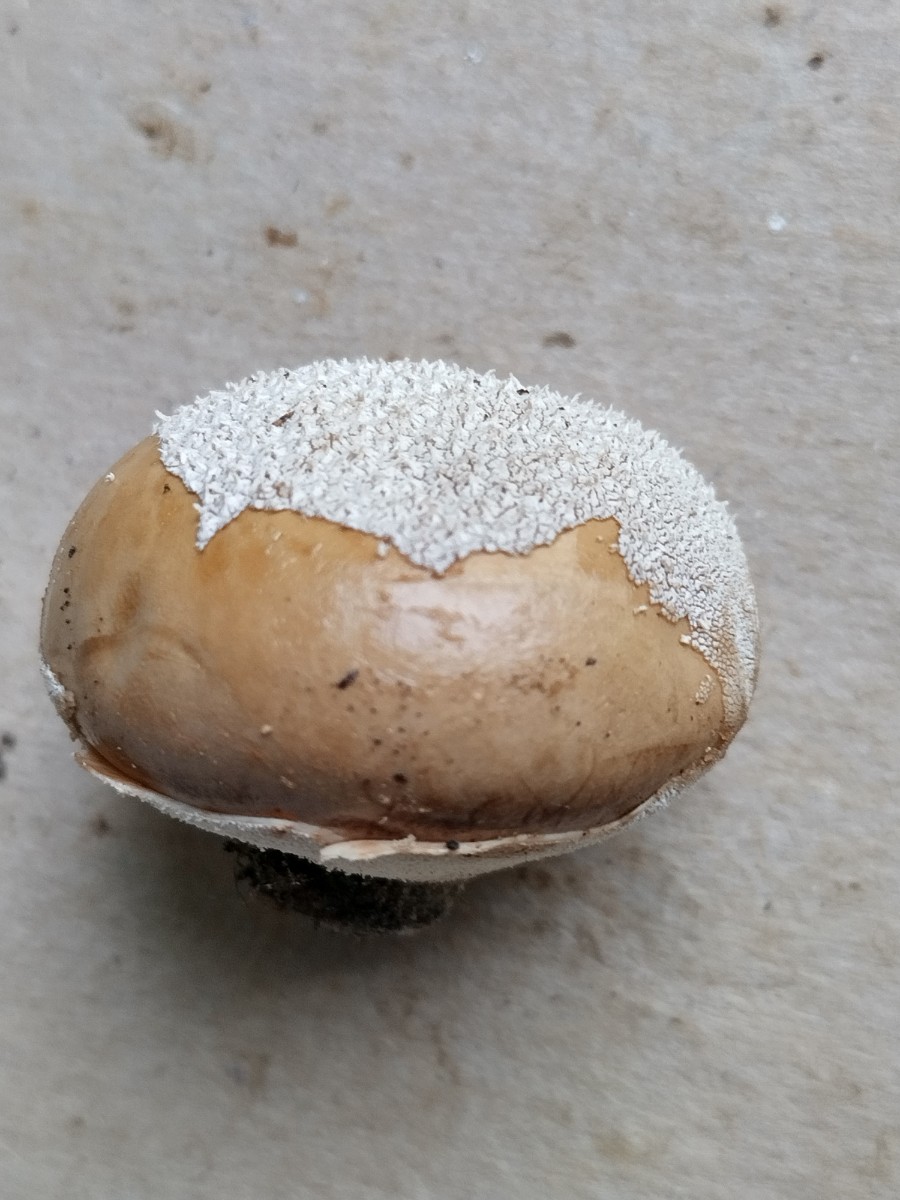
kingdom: Fungi
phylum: Basidiomycota
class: Agaricomycetes
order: Agaricales
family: Lycoperdaceae
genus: Lycoperdon
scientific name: Lycoperdon pratense
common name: flad støvbold
